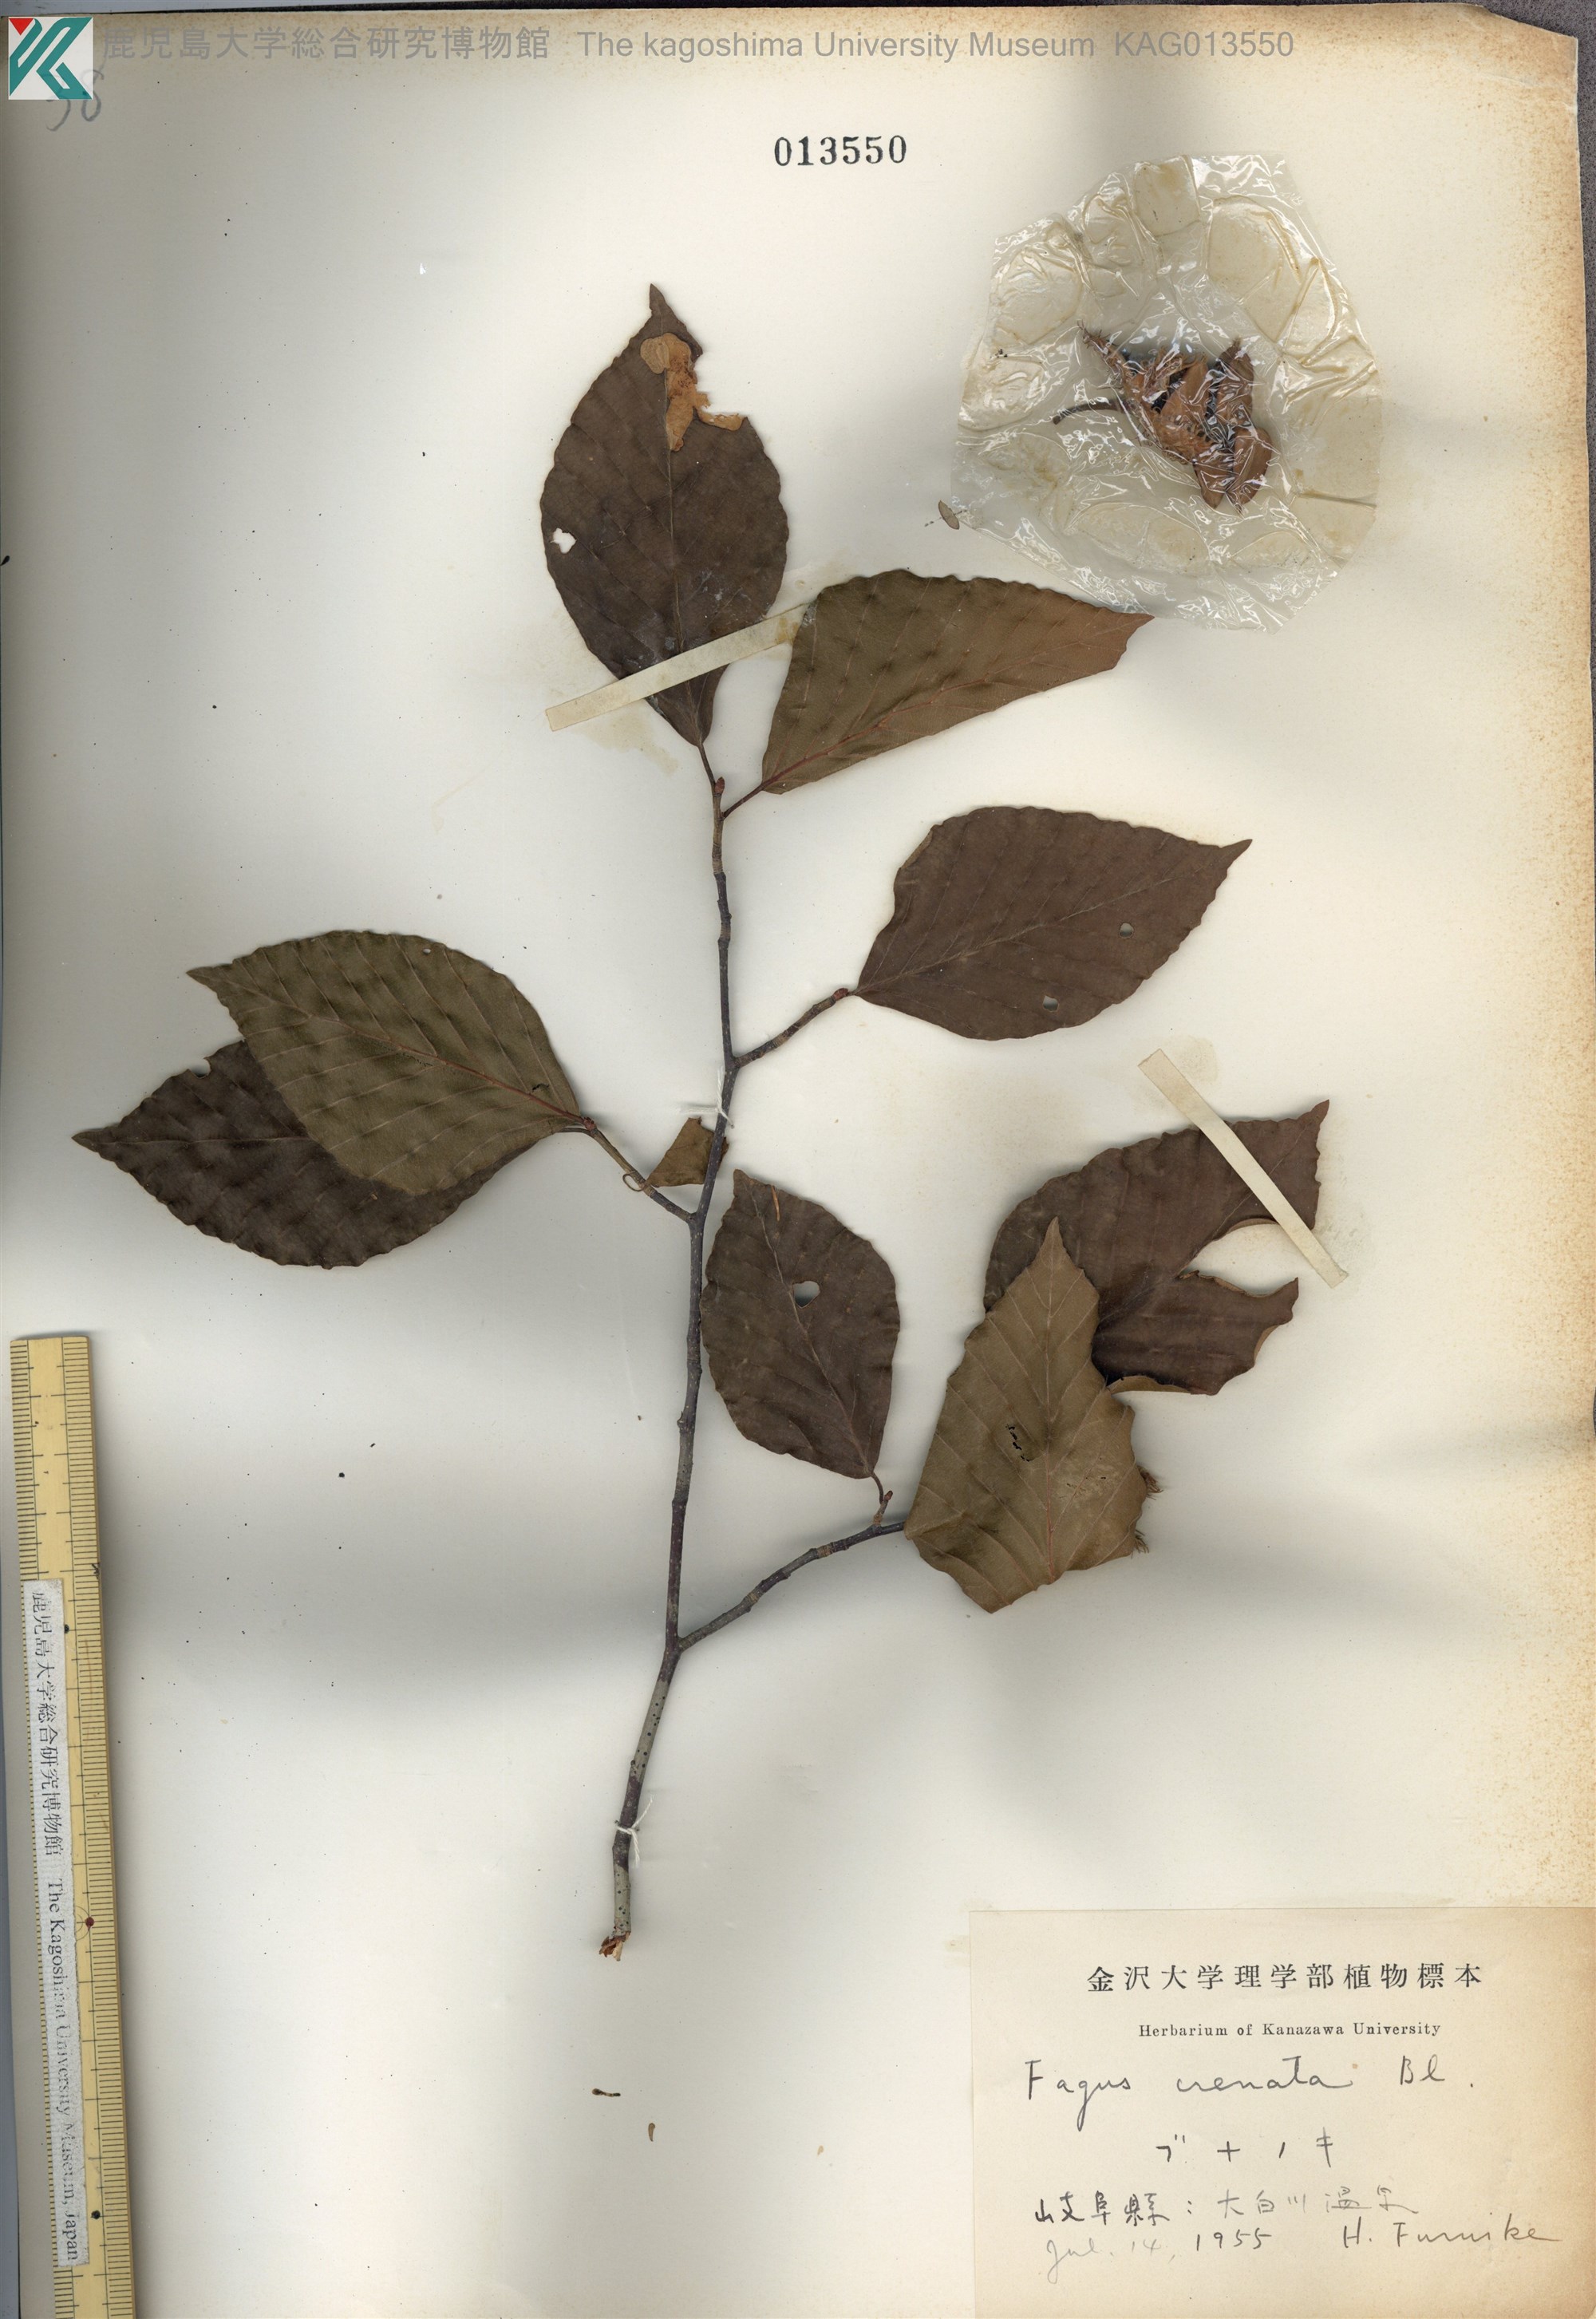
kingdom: Plantae
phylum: Tracheophyta
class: Magnoliopsida
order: Fagales
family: Fagaceae
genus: Fagus
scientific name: Fagus crenata
